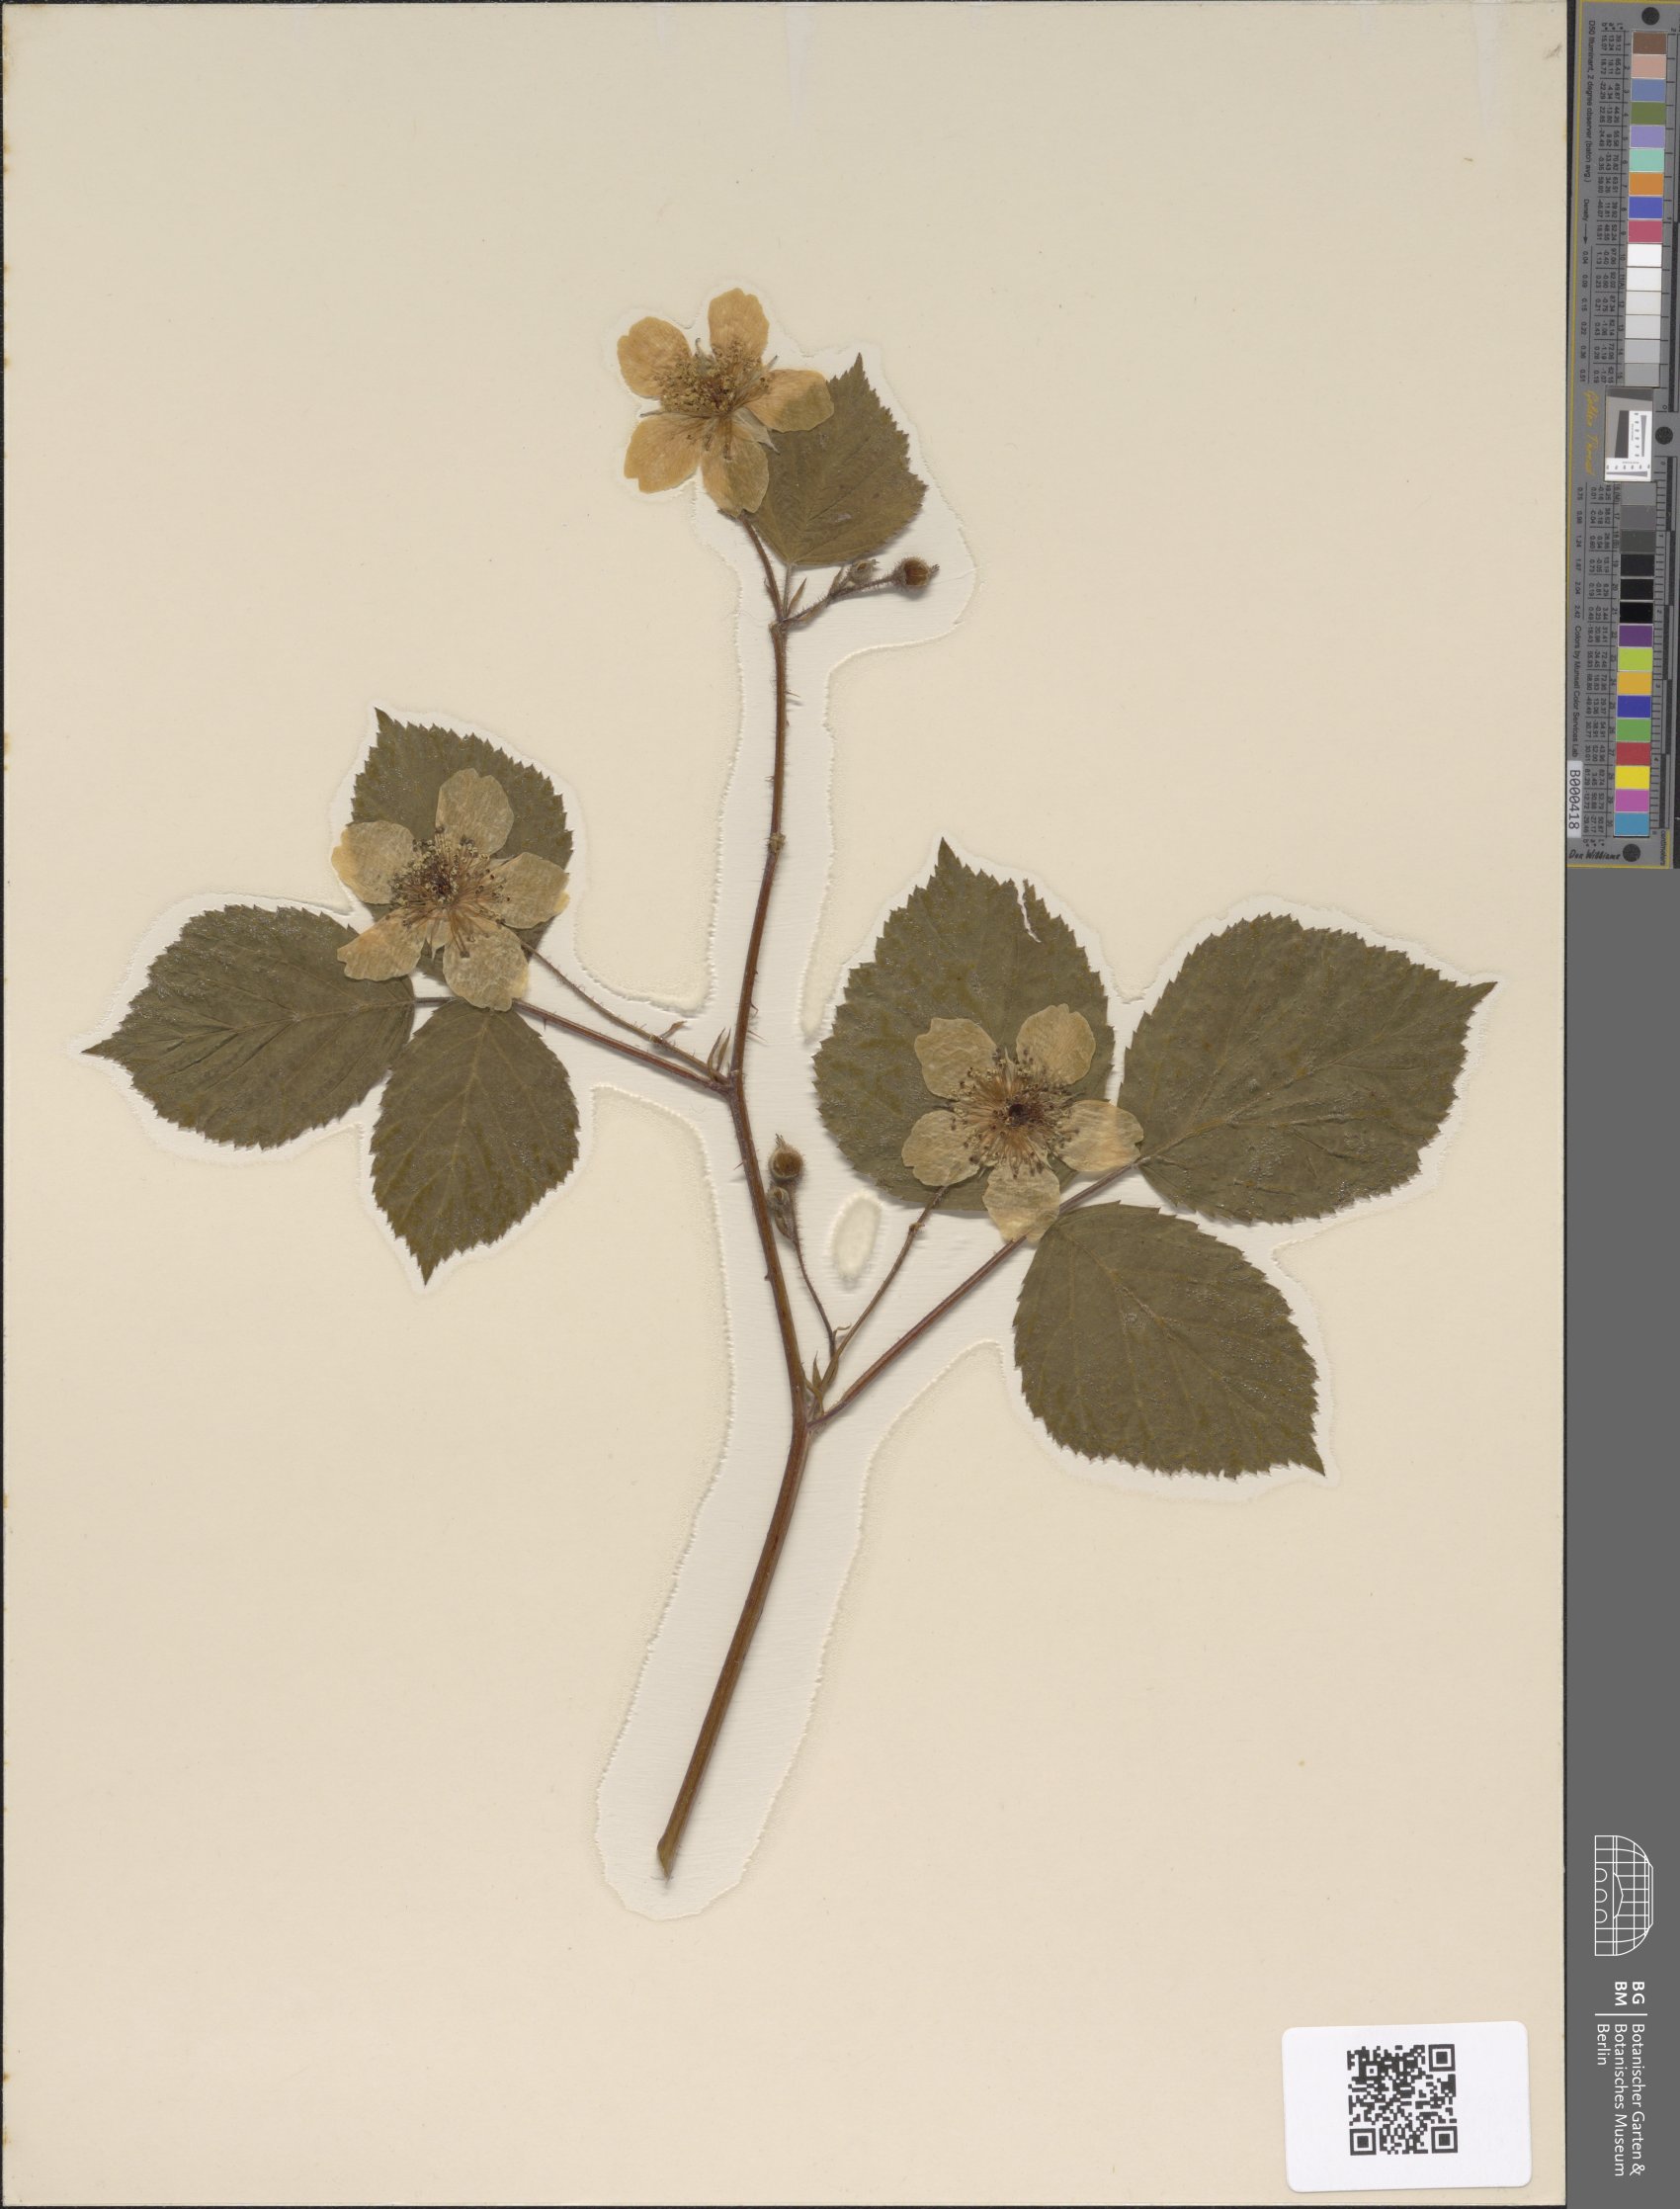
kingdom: Plantae
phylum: Tracheophyta
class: Magnoliopsida
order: Rosales
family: Rosaceae
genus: Rubus
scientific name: Rubus fruticosus
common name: Blackberry, bramble
